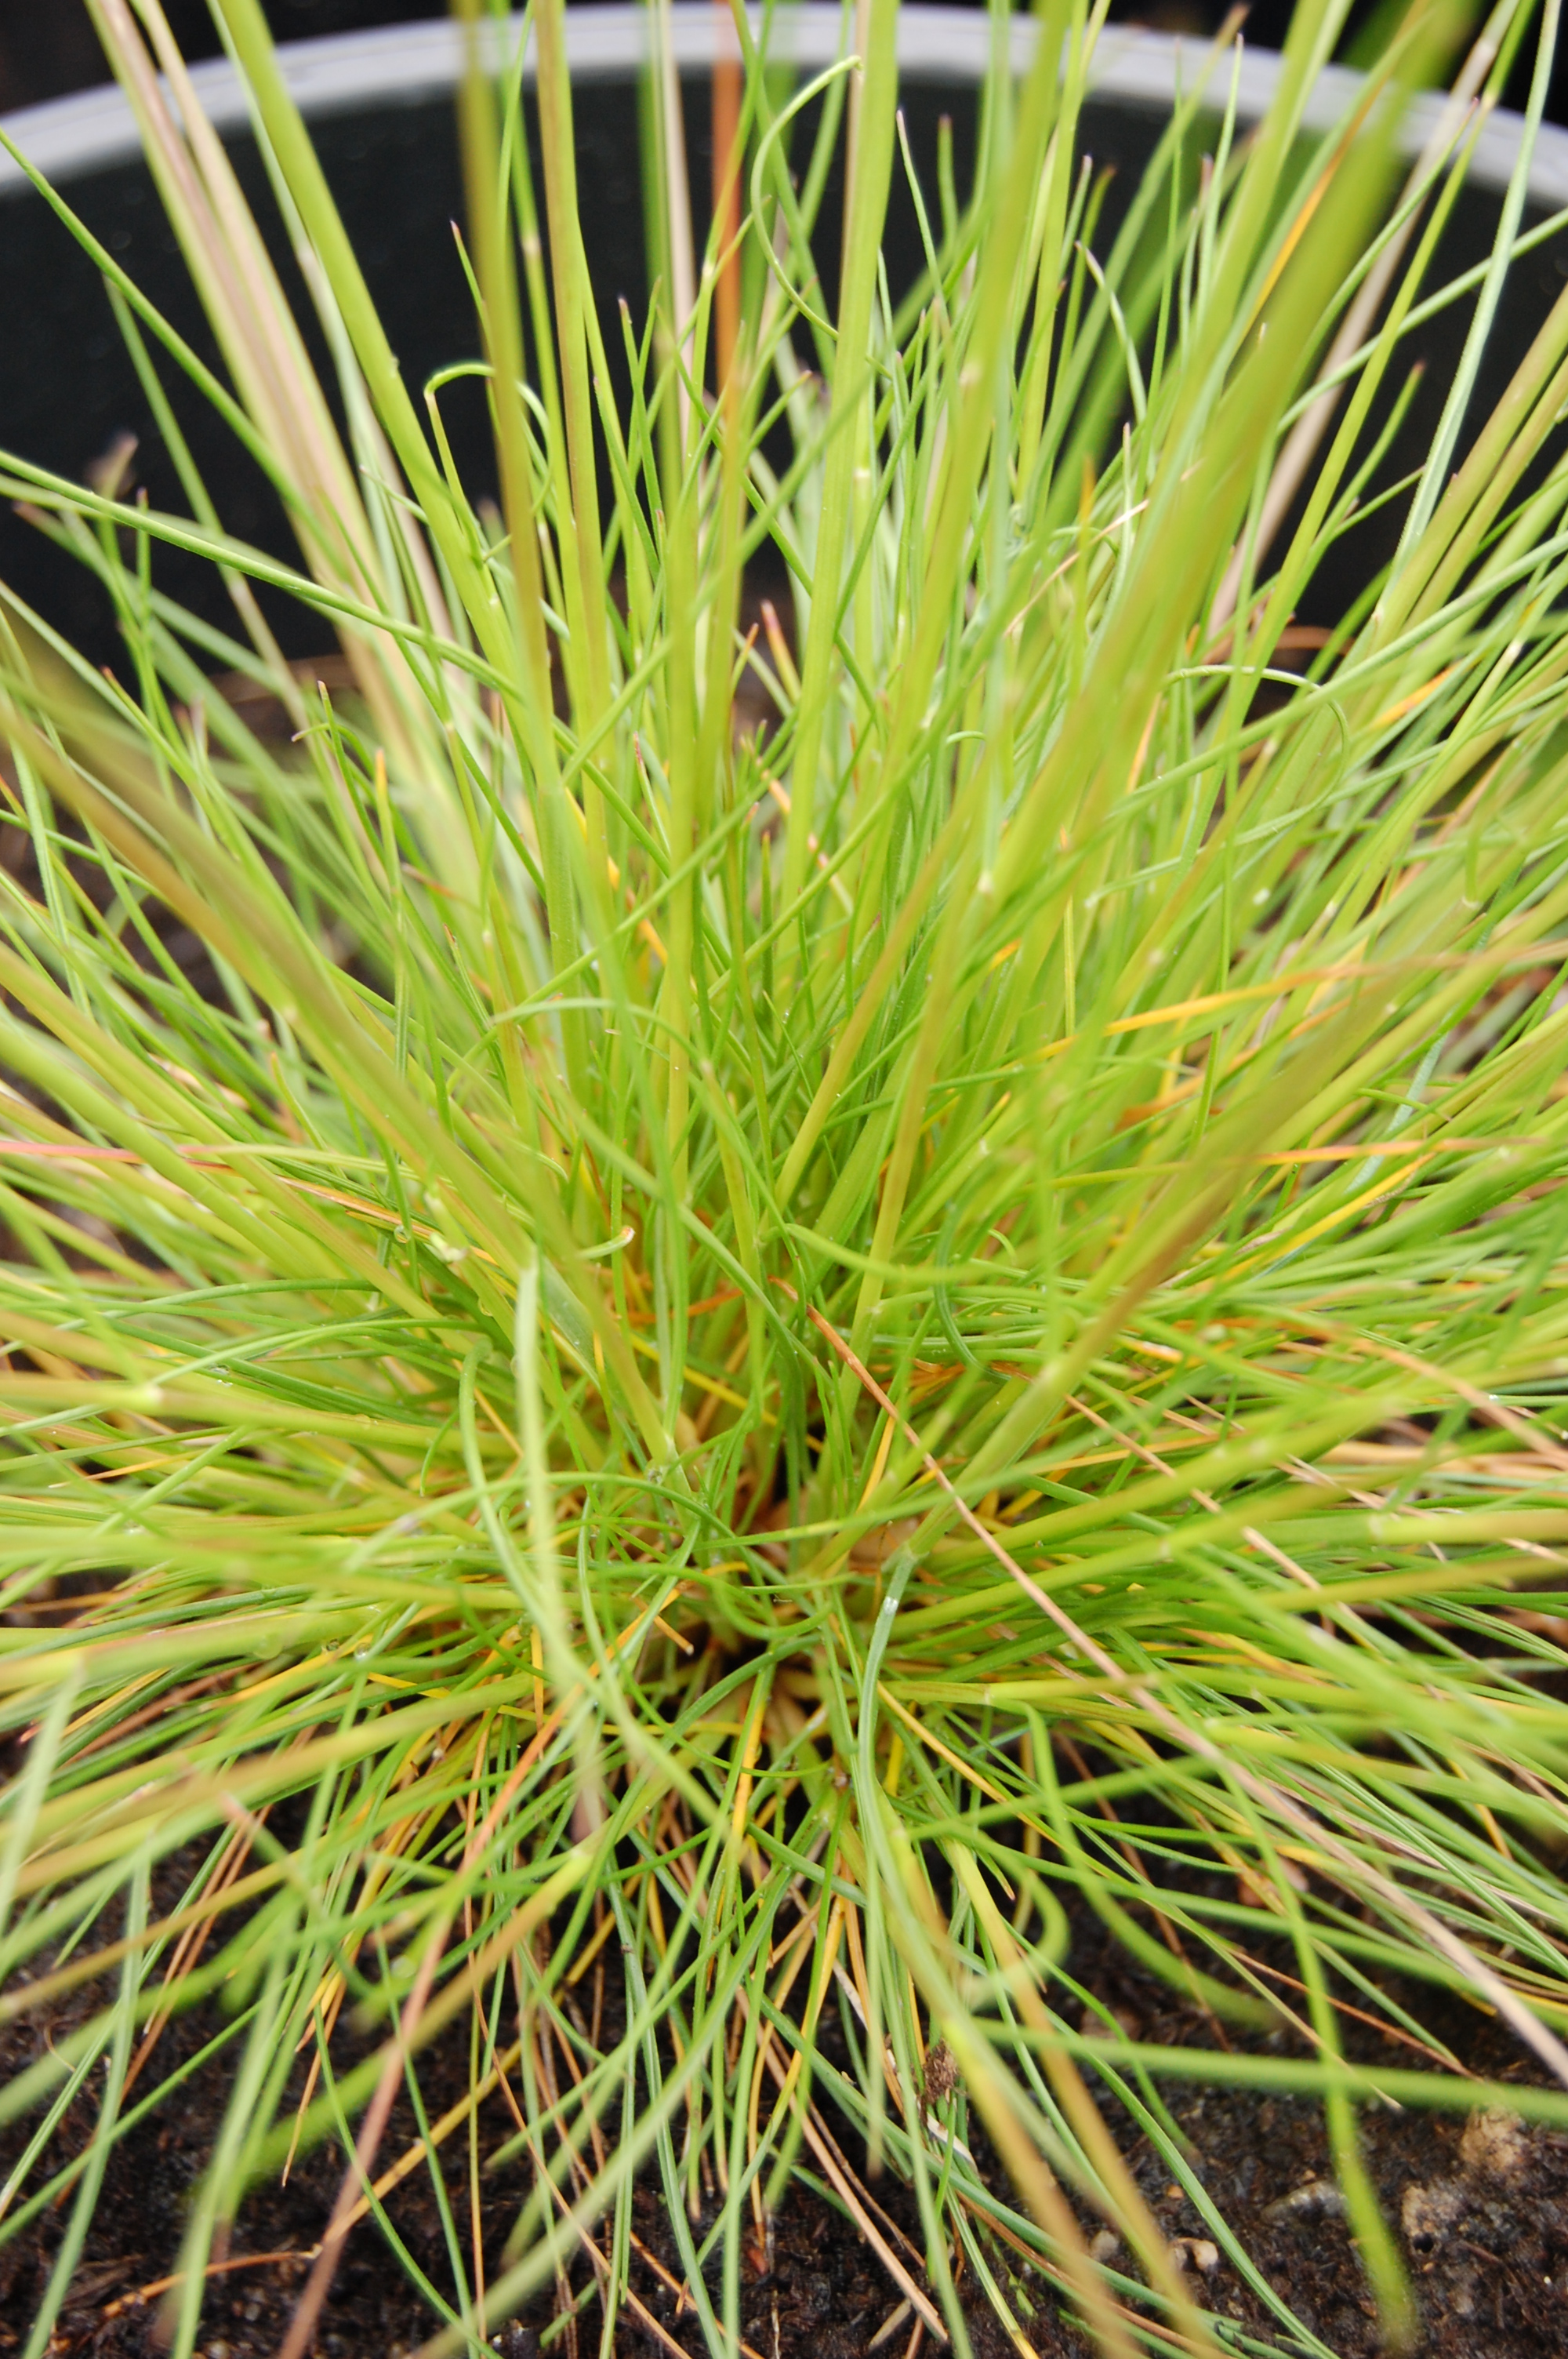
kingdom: Plantae
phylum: Tracheophyta
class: Liliopsida
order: Poales
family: Poaceae
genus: Festuca
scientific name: Festuca ovina
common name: Sheep fescue
